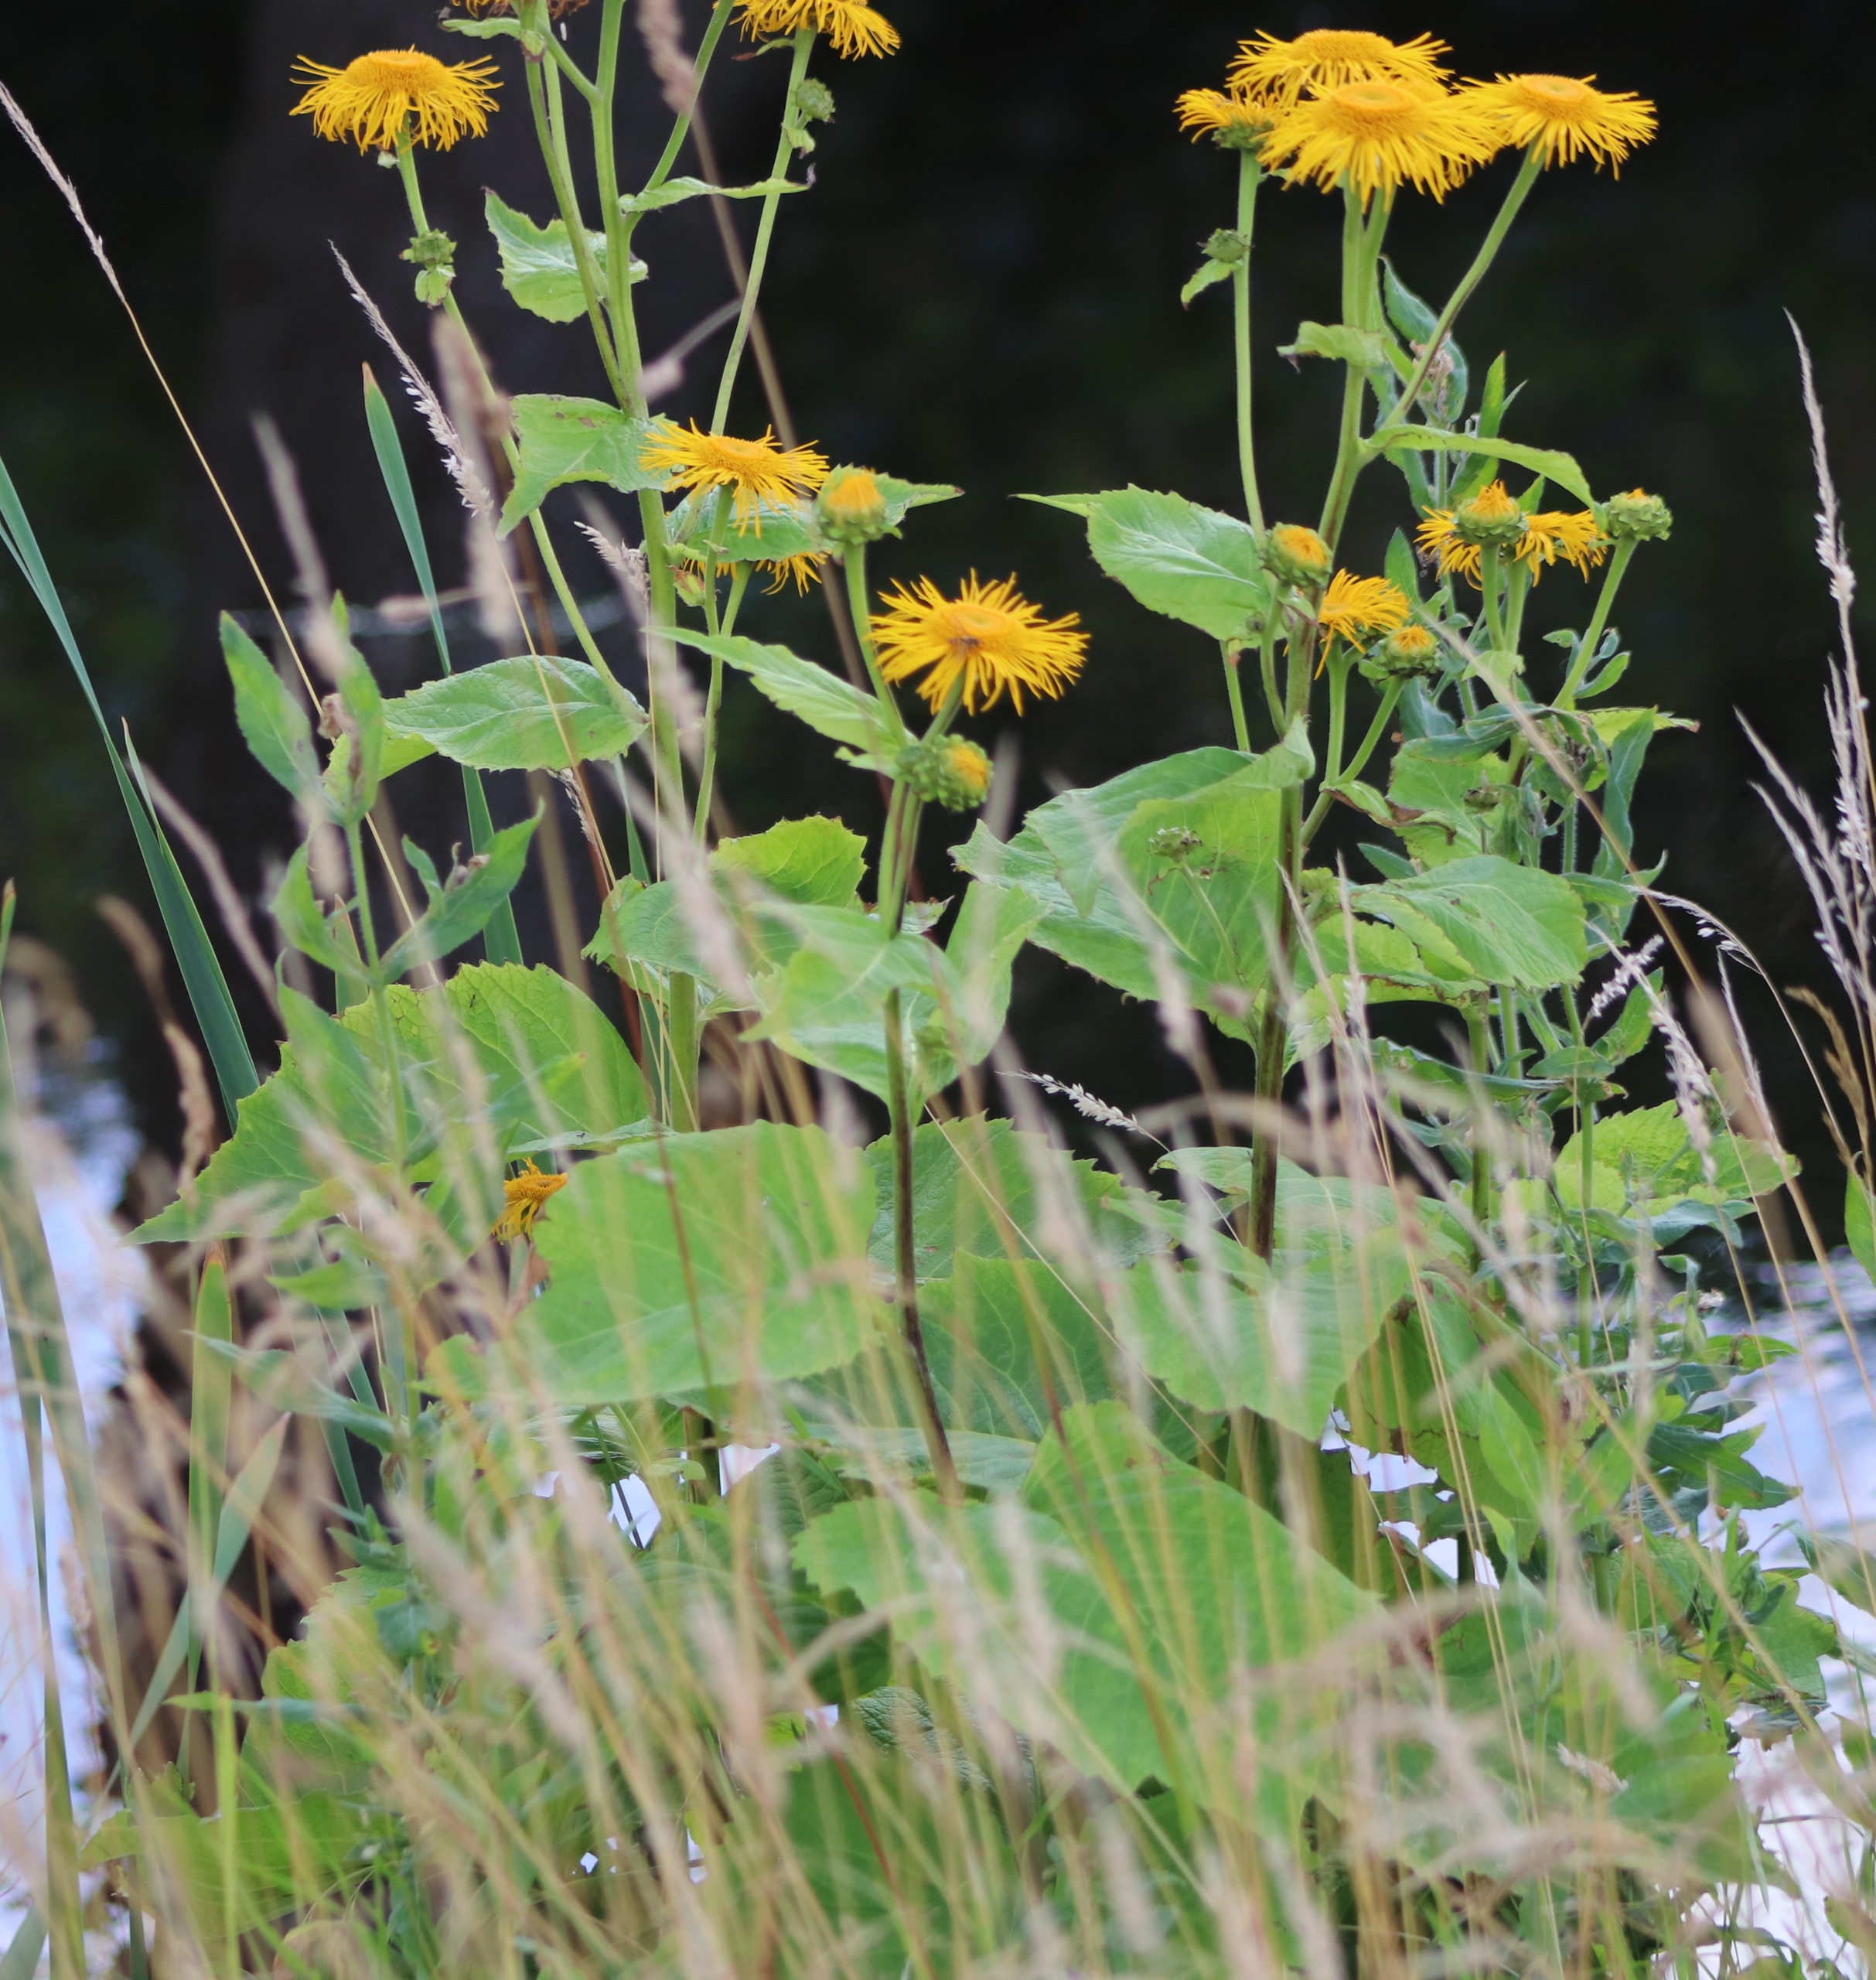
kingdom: Plantae
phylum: Tracheophyta
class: Magnoliopsida
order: Asterales
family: Asteraceae
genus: Telekia
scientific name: Telekia speciosa
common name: Tusindstråle
